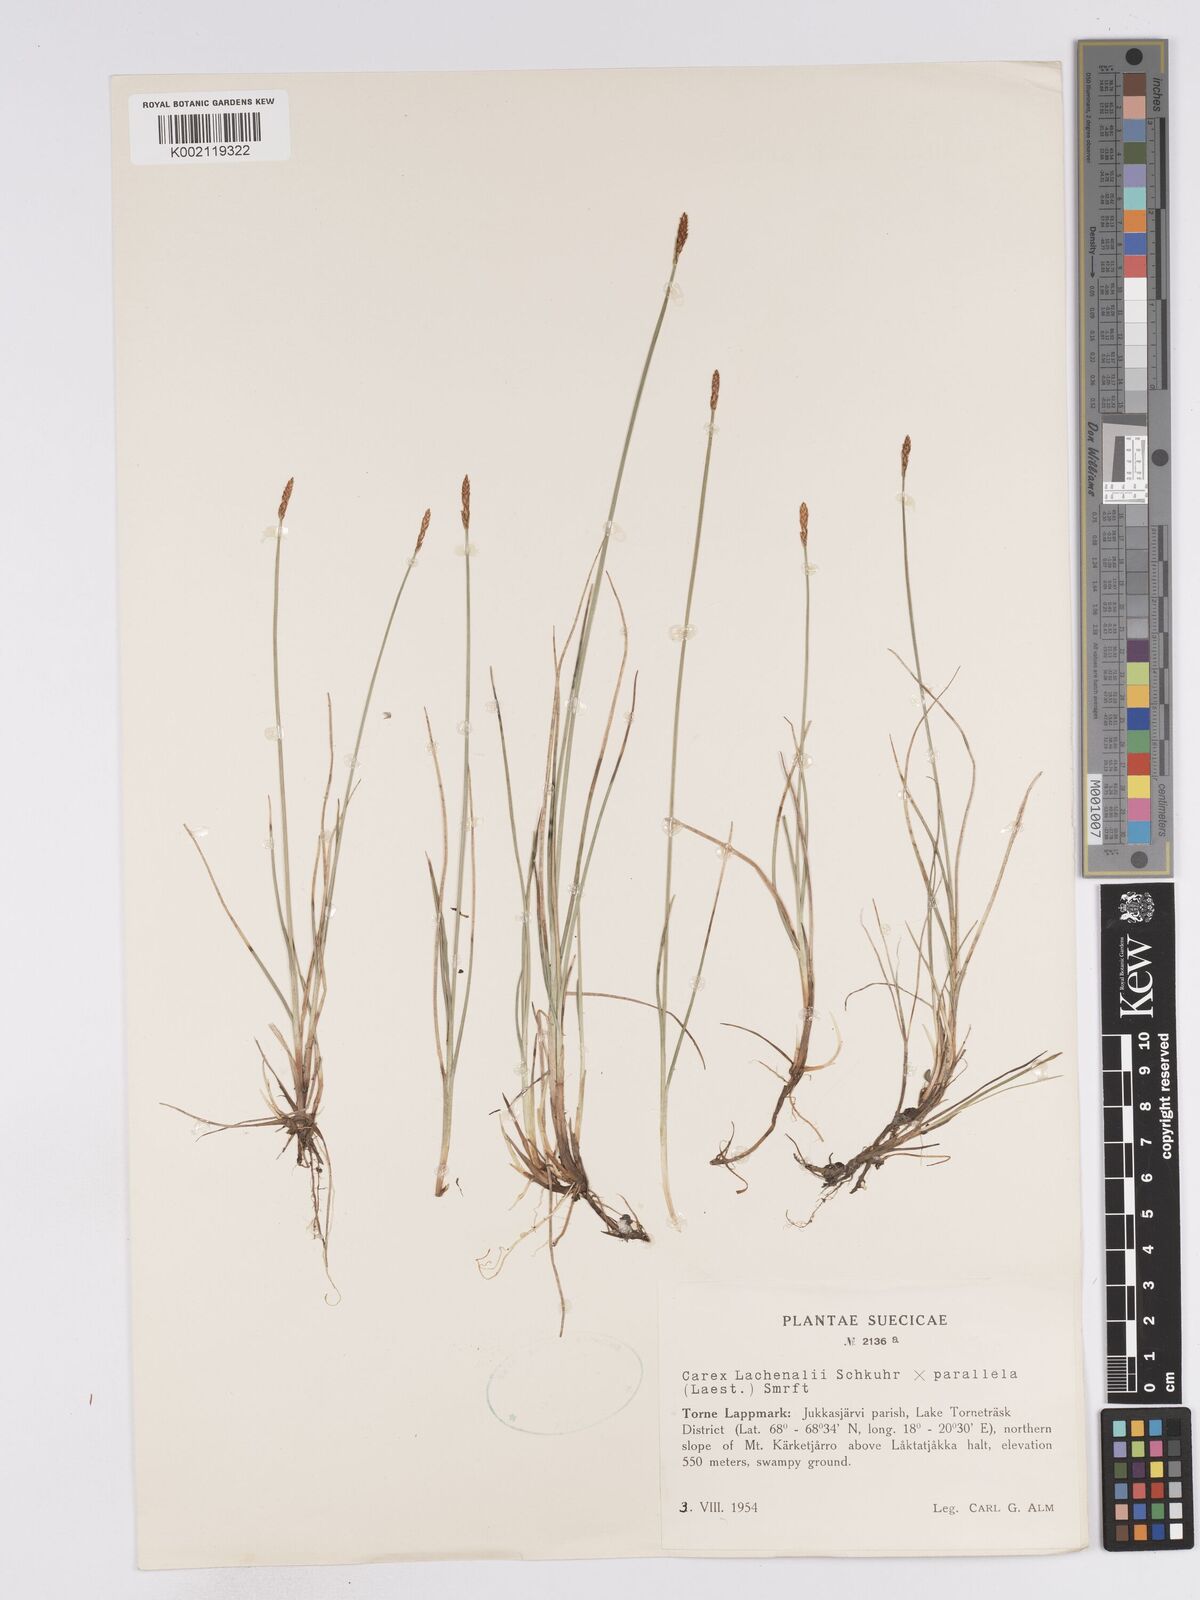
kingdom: Plantae
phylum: Tracheophyta
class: Liliopsida
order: Poales
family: Cyperaceae
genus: Carex
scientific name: Carex lachenalii
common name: Hare's-foot sedge
